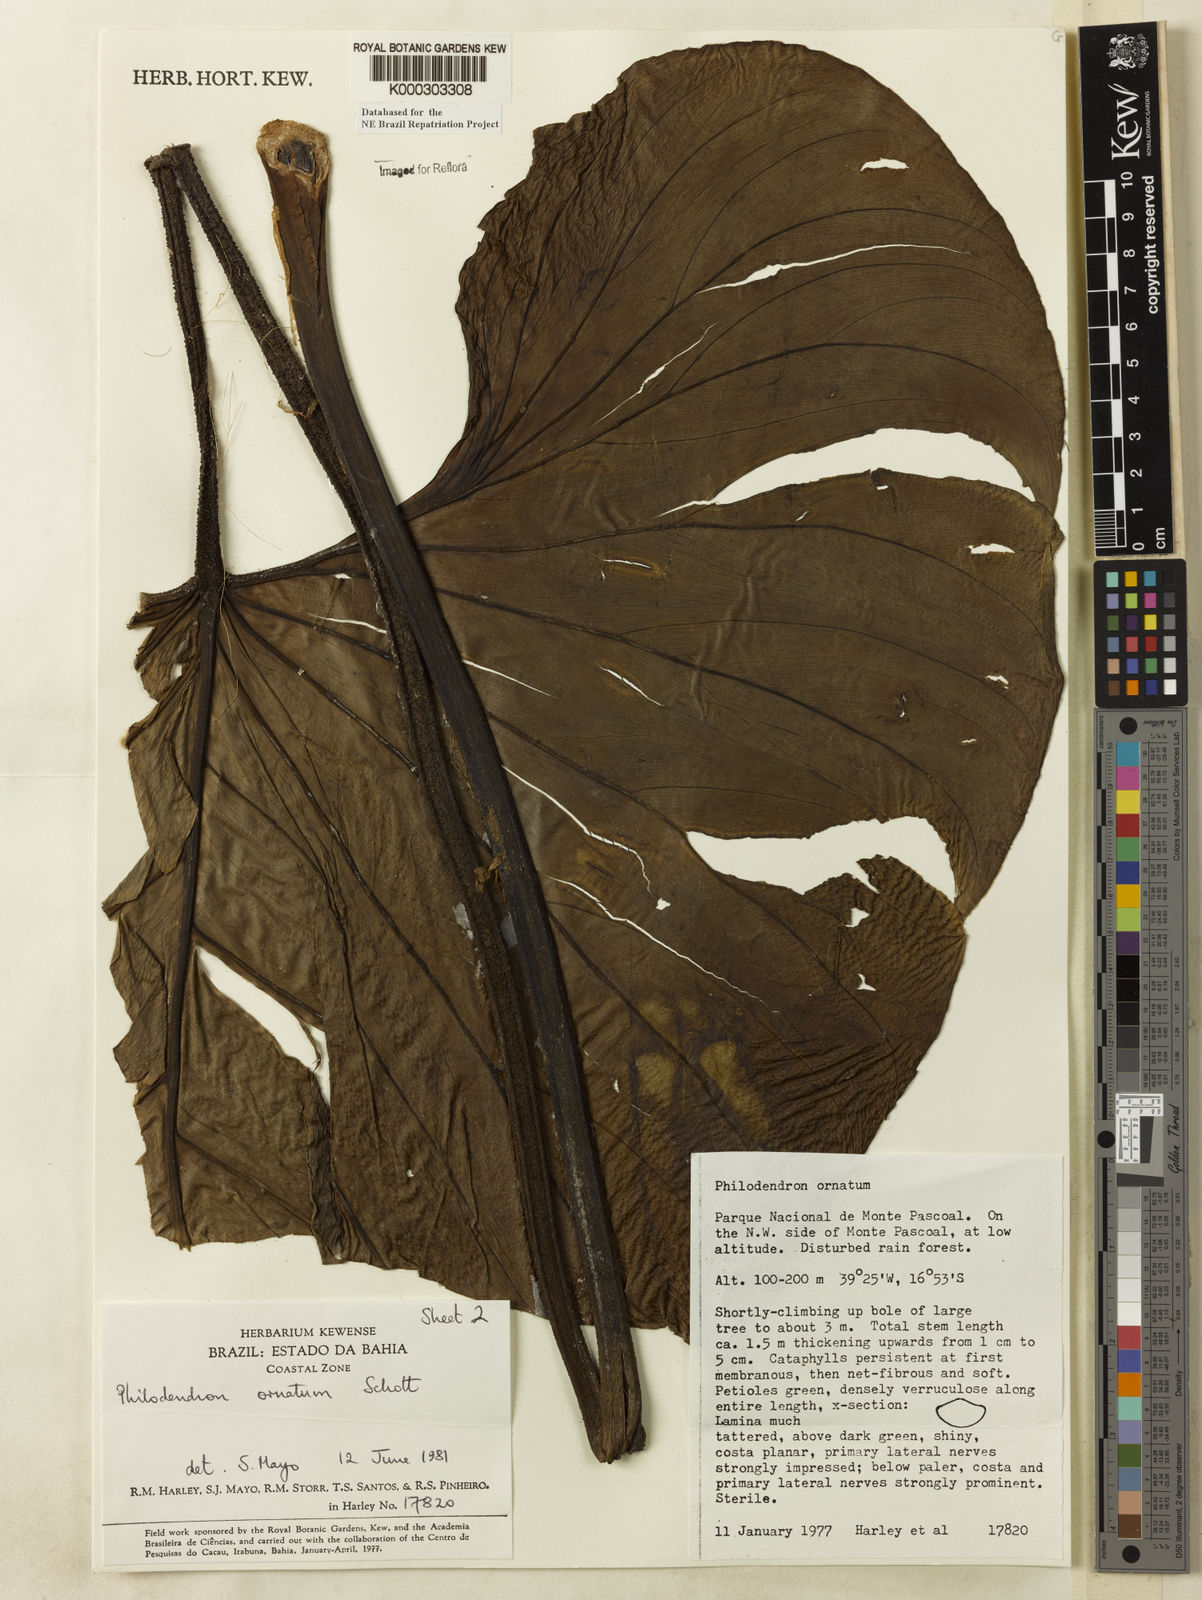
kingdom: Plantae
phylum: Tracheophyta
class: Liliopsida
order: Alismatales
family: Araceae
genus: Philodendron
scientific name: Philodendron ornatum
